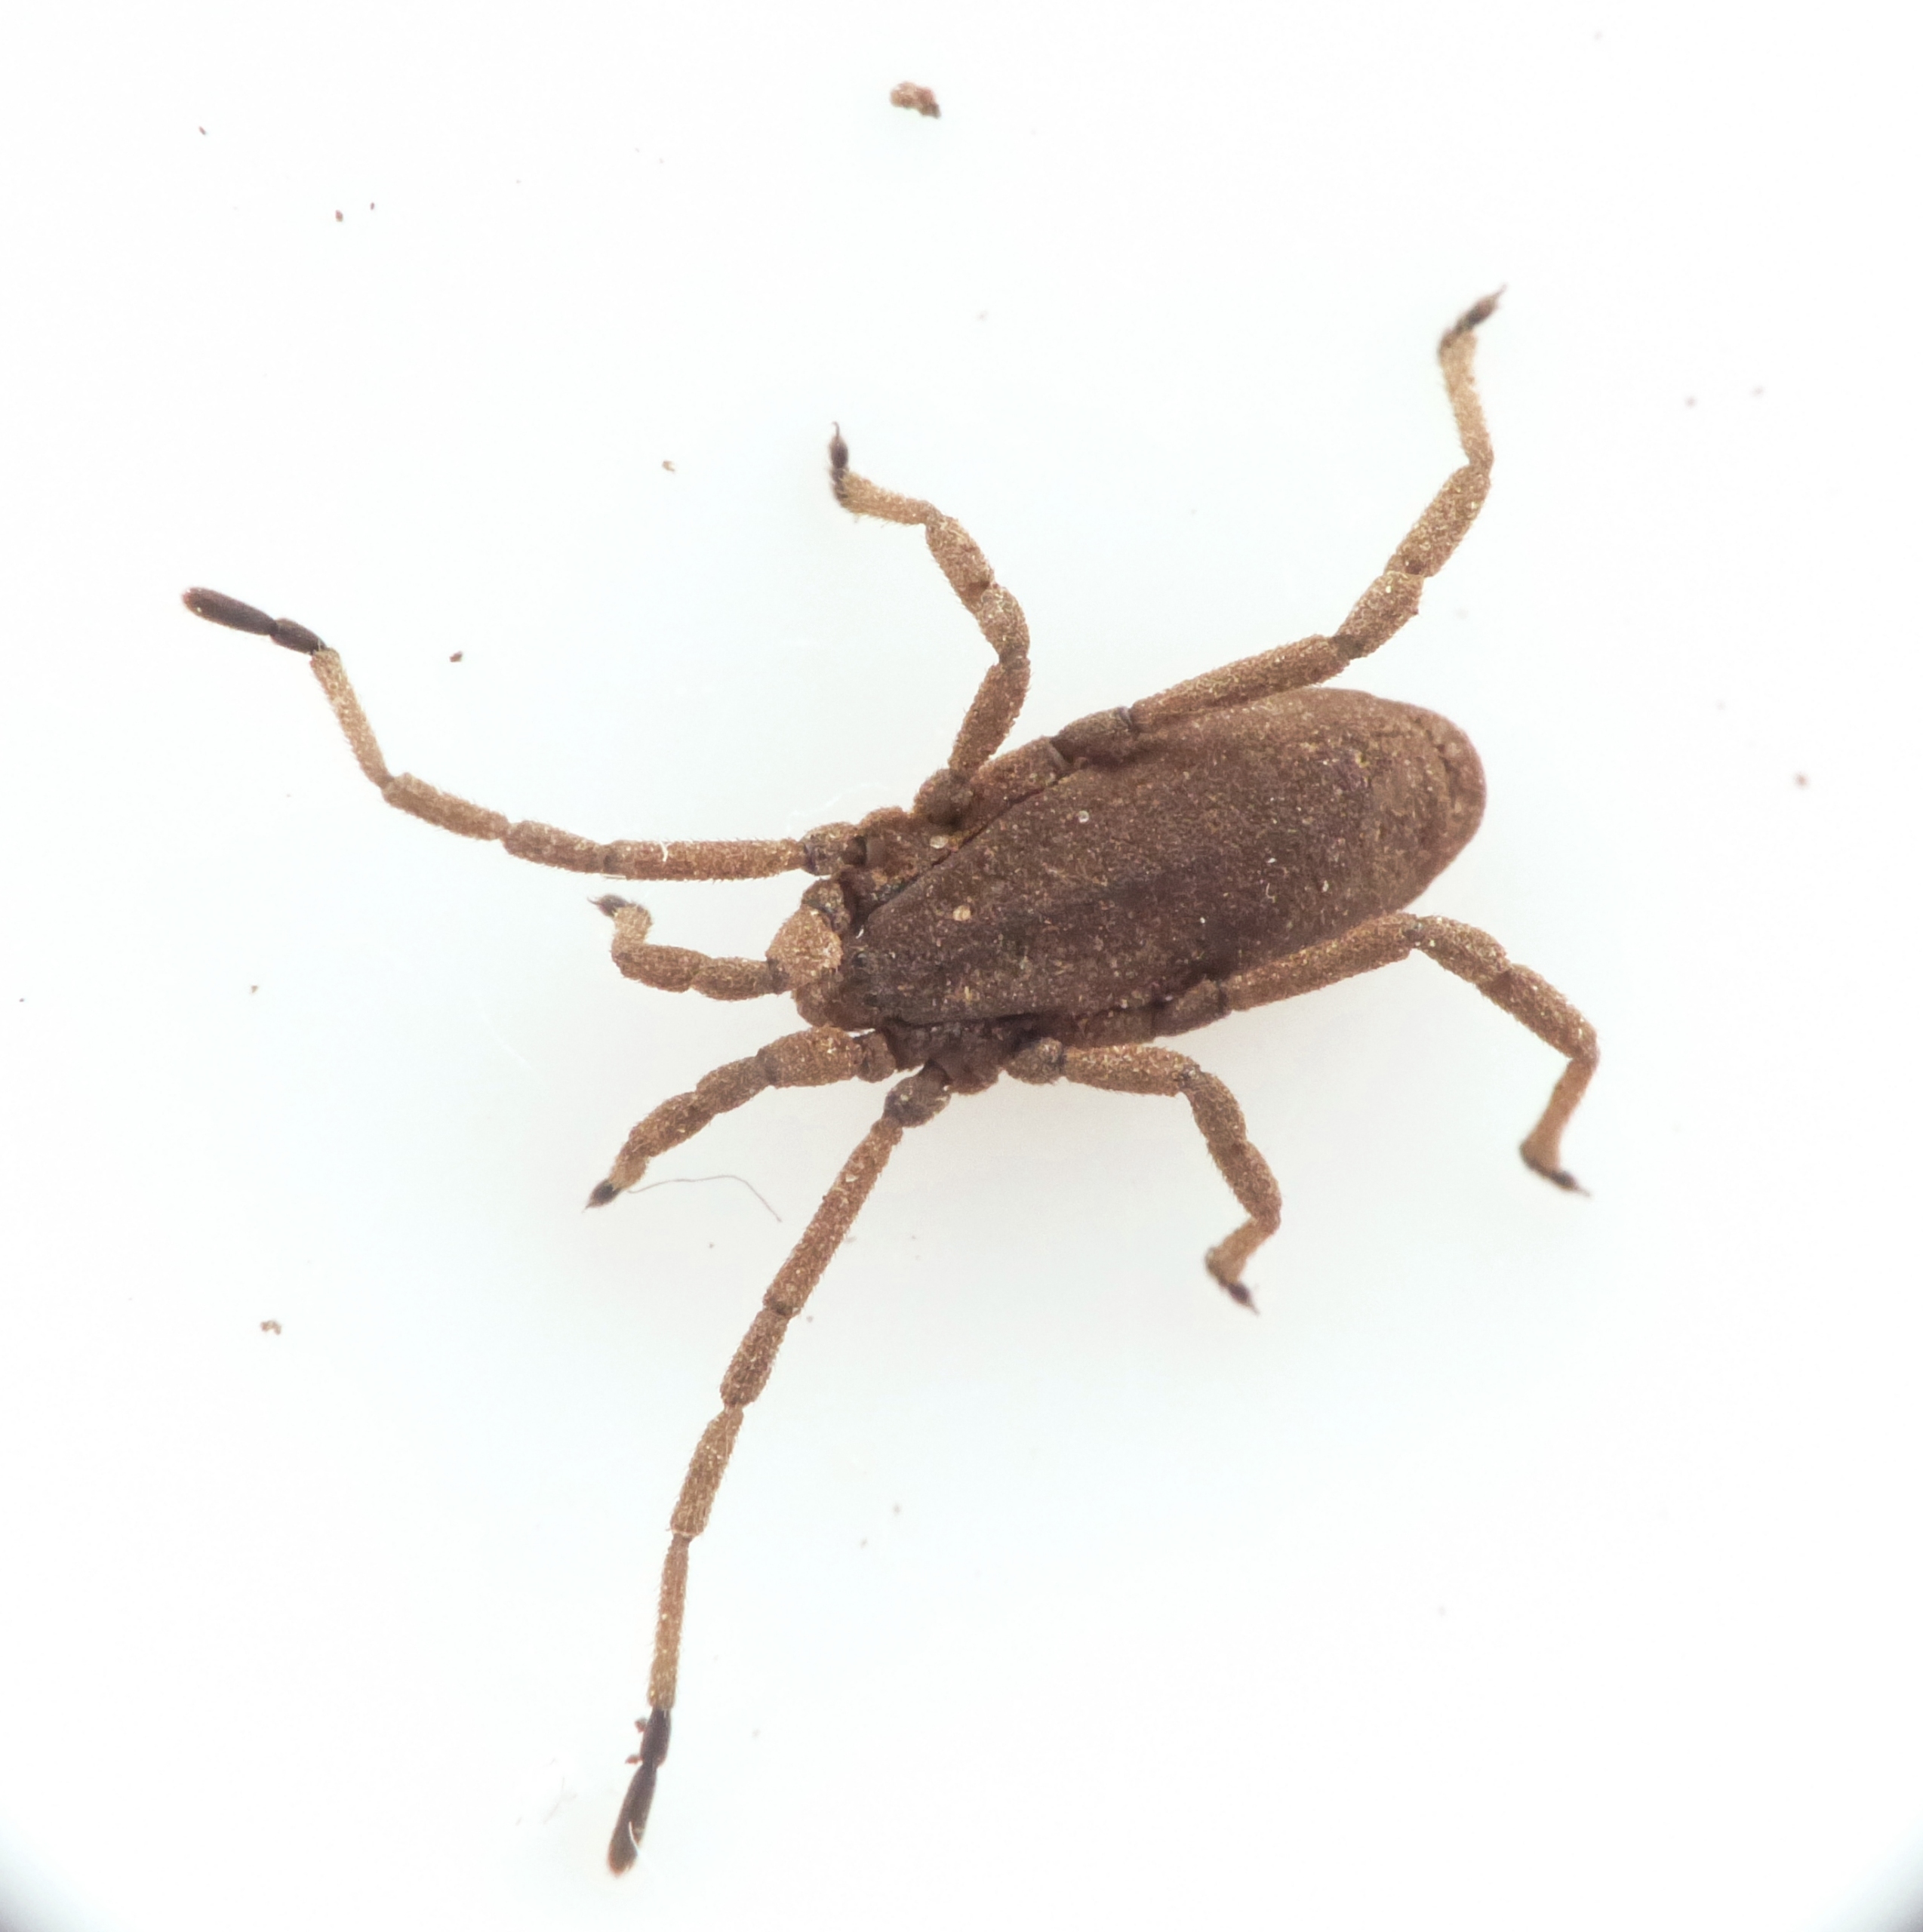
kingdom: Animalia
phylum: Arthropoda
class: Arachnida
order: Opiliones
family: Trogulidae
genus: Trogulus
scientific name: Trogulus tricarinatus
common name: Sneglemejer
